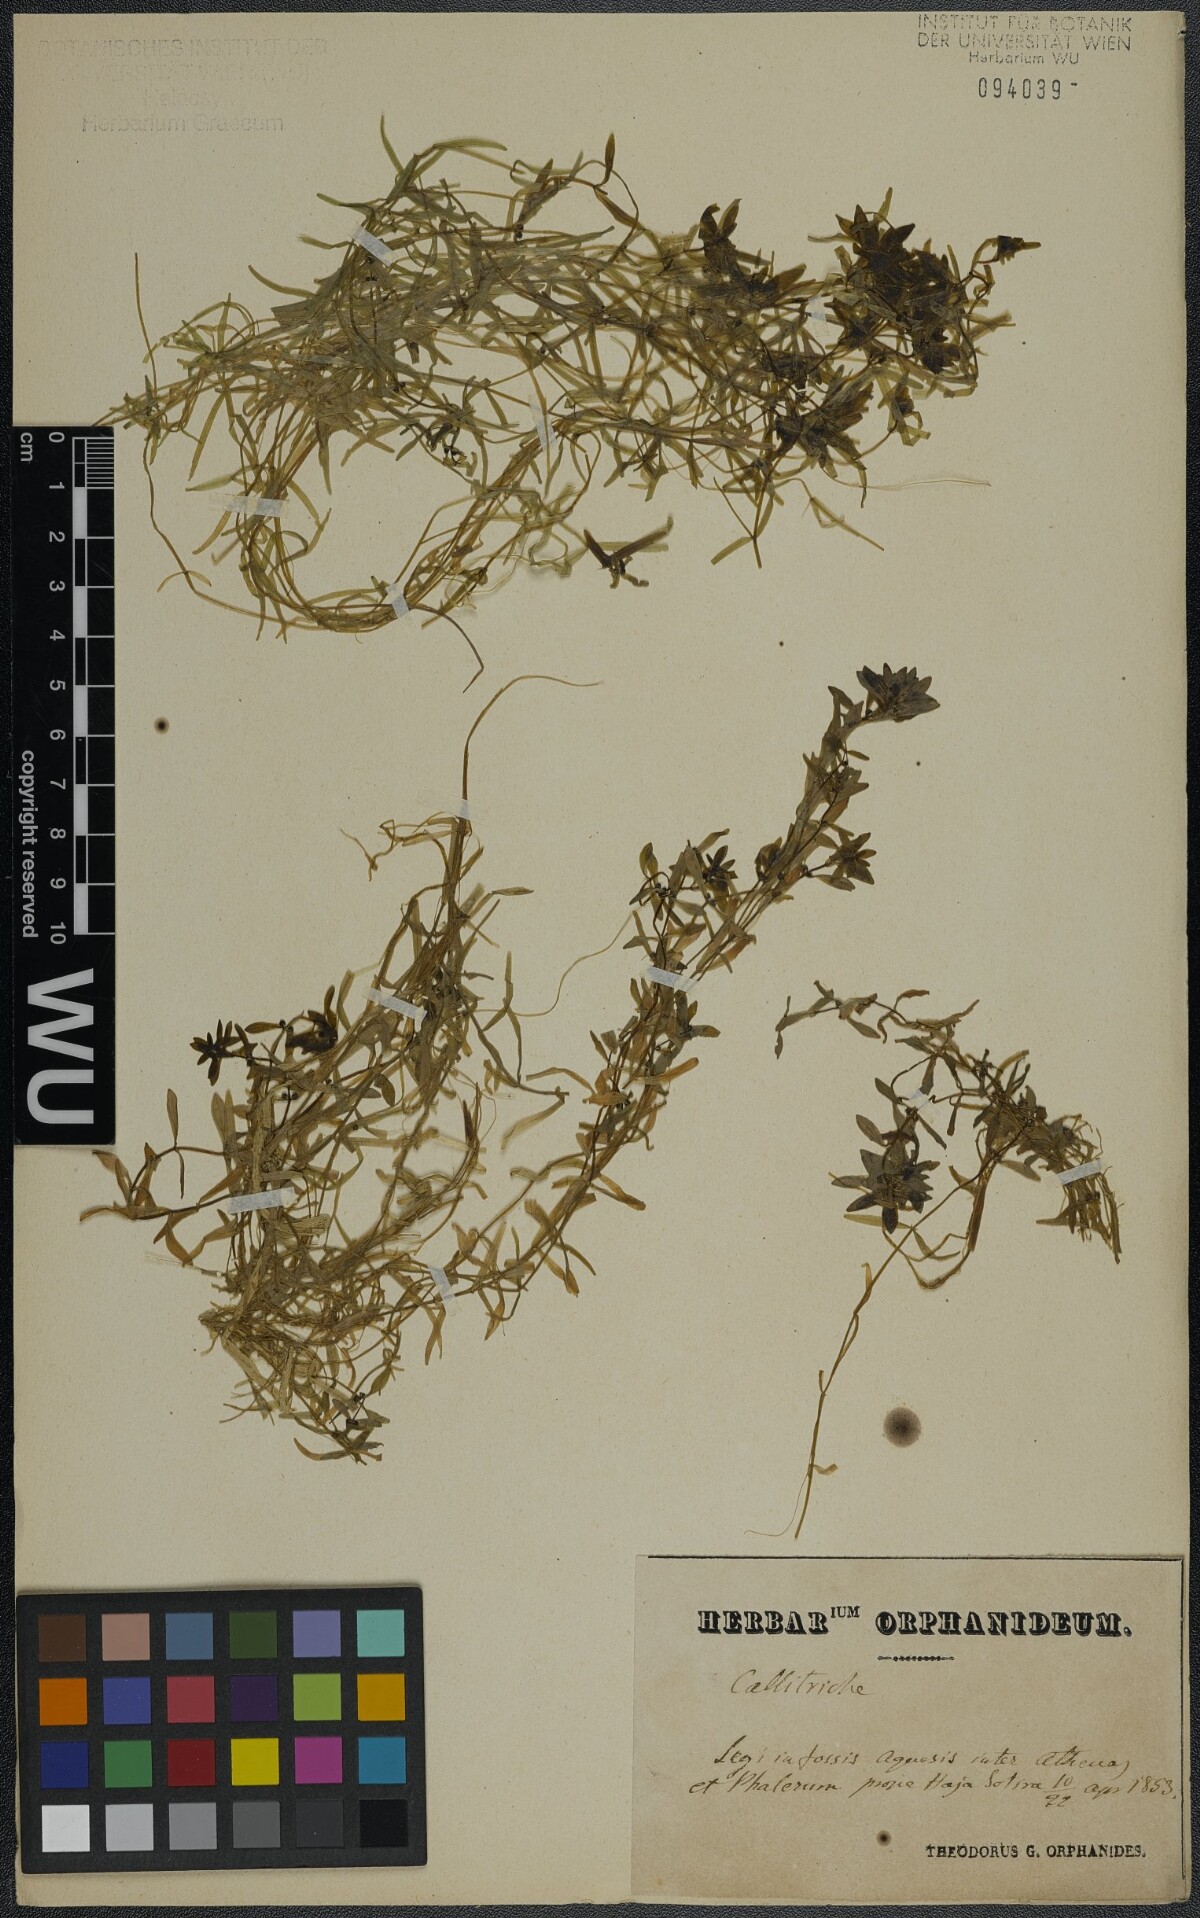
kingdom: Plantae
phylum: Tracheophyta
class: Magnoliopsida
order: Lamiales
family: Plantaginaceae
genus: Callitriche
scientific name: Callitriche lenisulca
